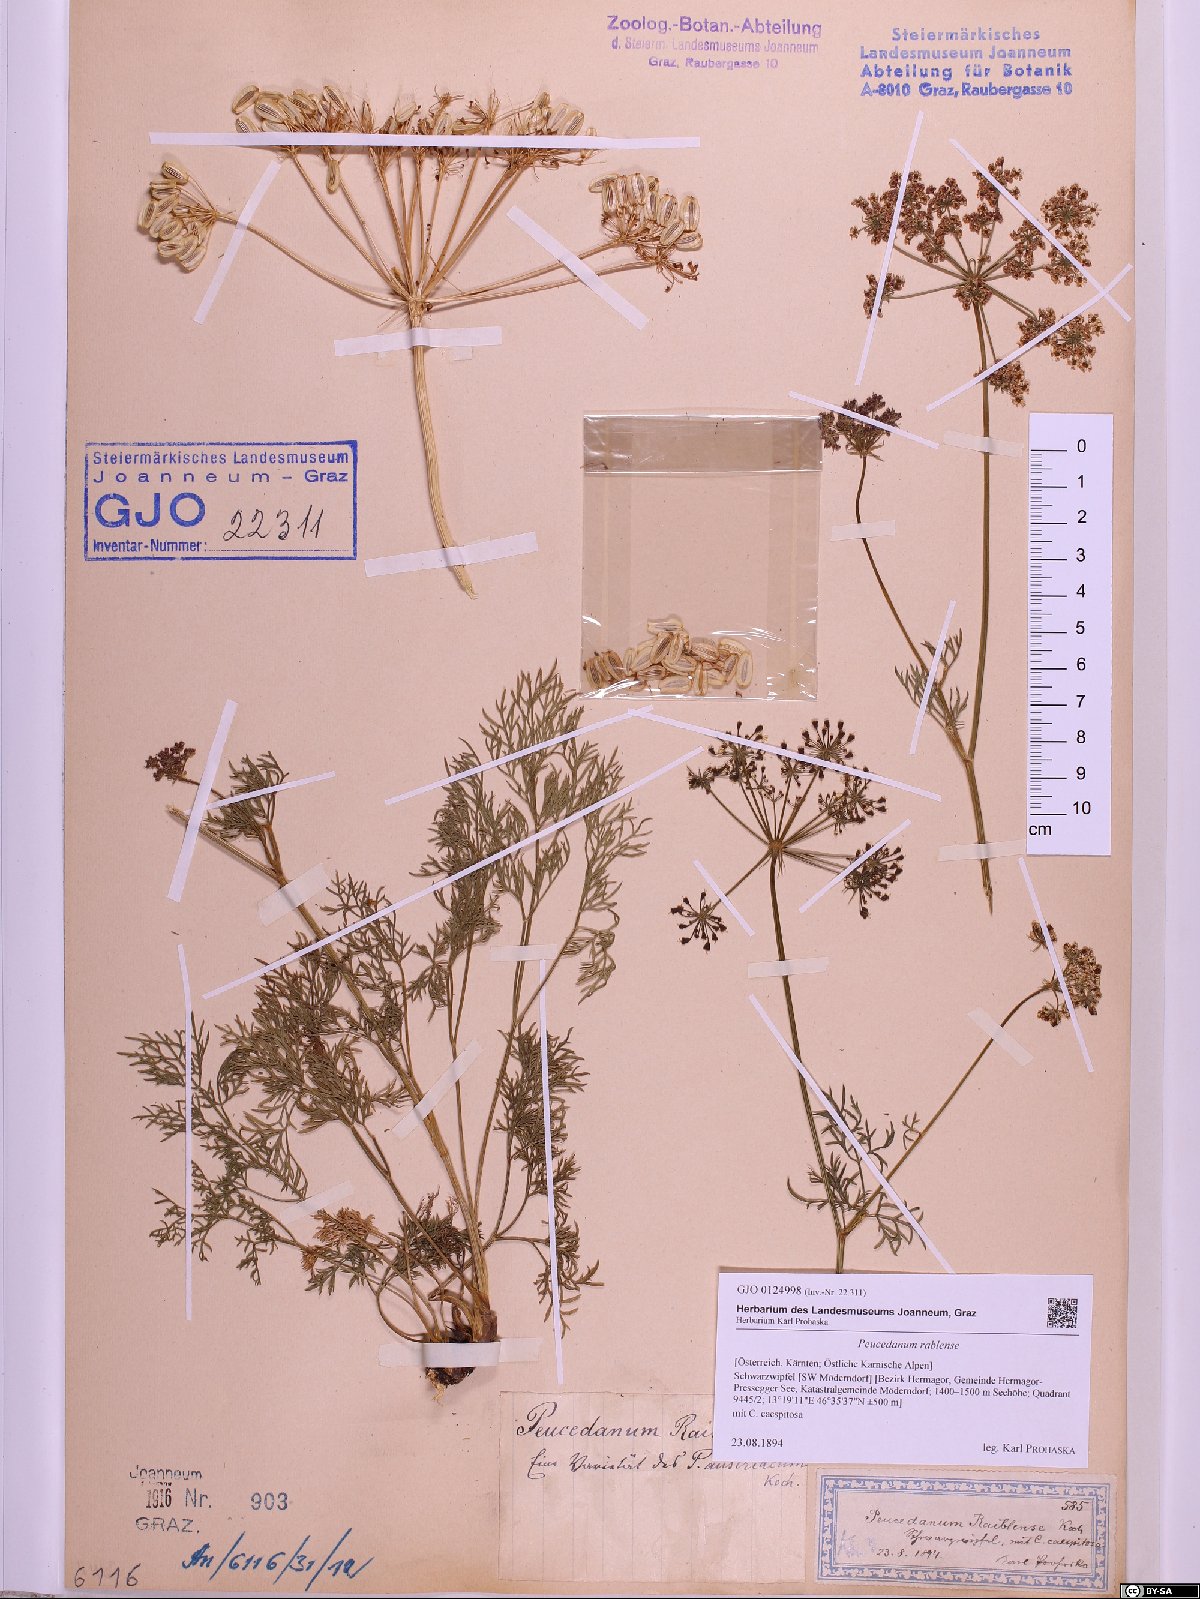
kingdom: Plantae
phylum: Tracheophyta
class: Magnoliopsida
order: Apiales
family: Apiaceae
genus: Peucedanum
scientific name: Peucedanum rablense
